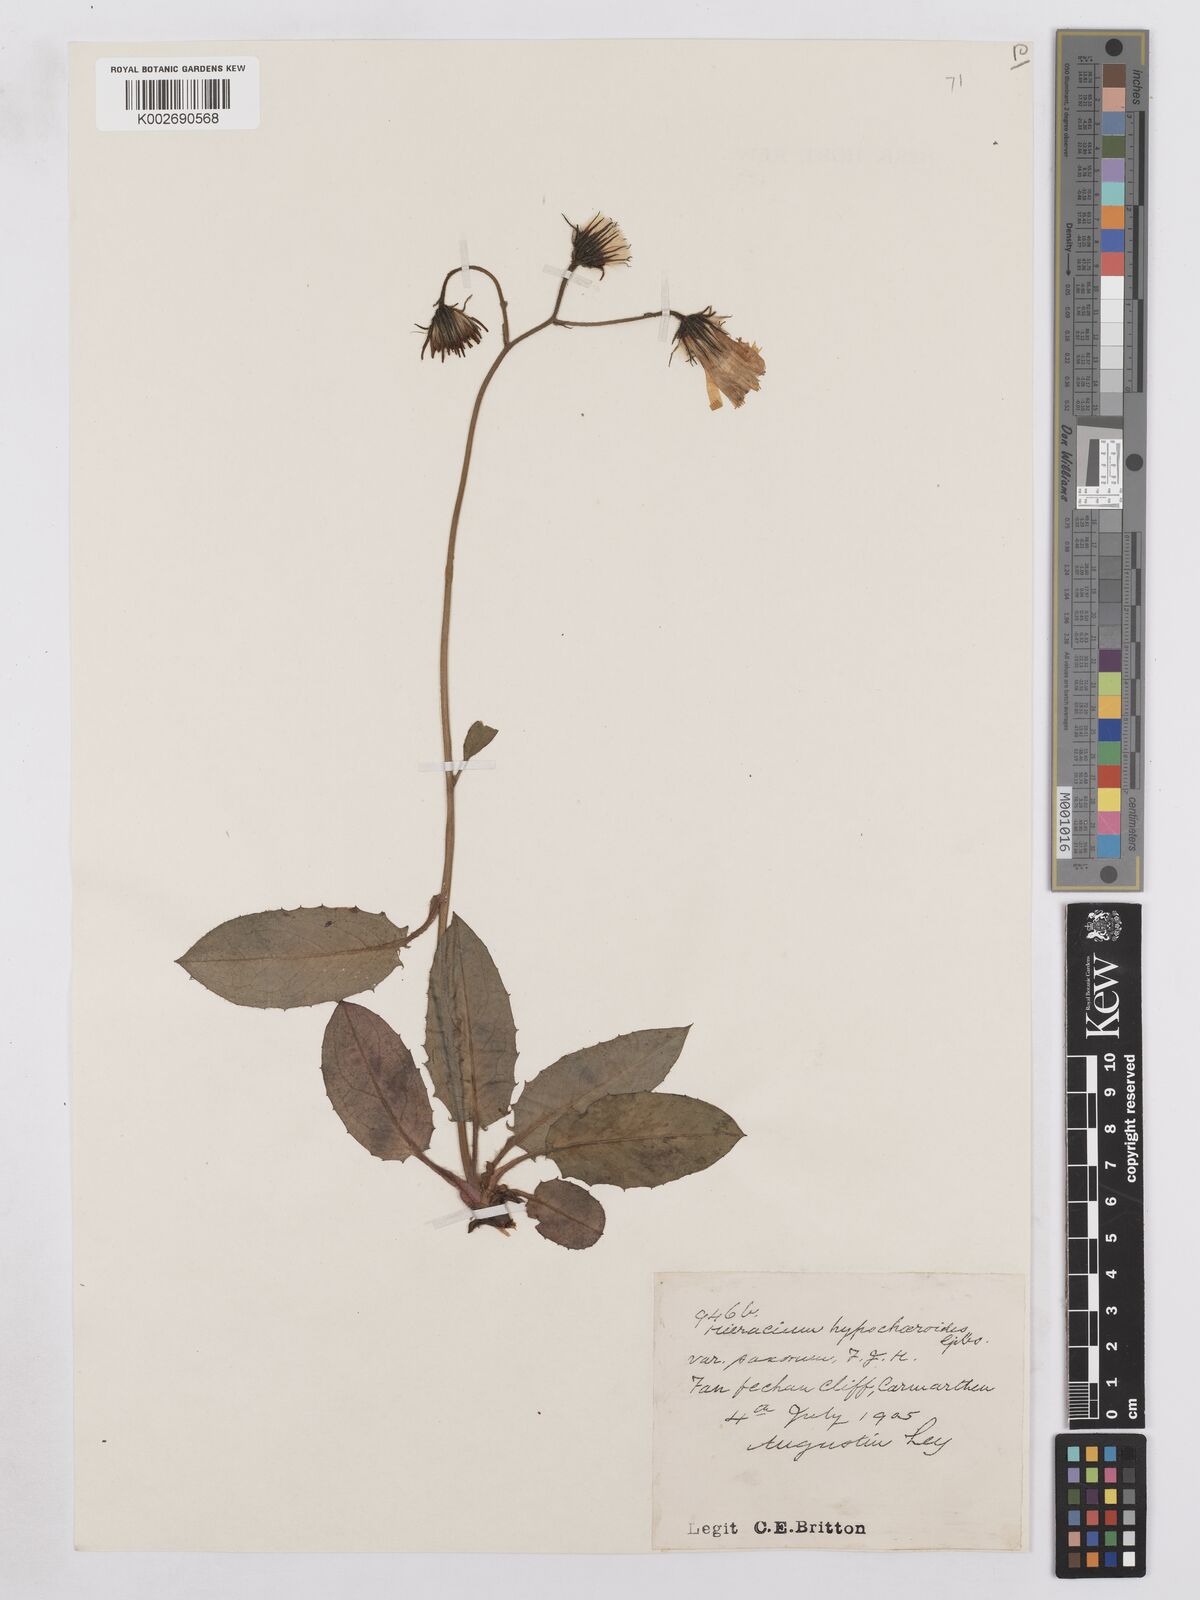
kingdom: Plantae
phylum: Tracheophyta
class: Magnoliopsida
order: Asterales
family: Asteraceae
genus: Hieracium
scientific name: Hieracium hypochoeroides
